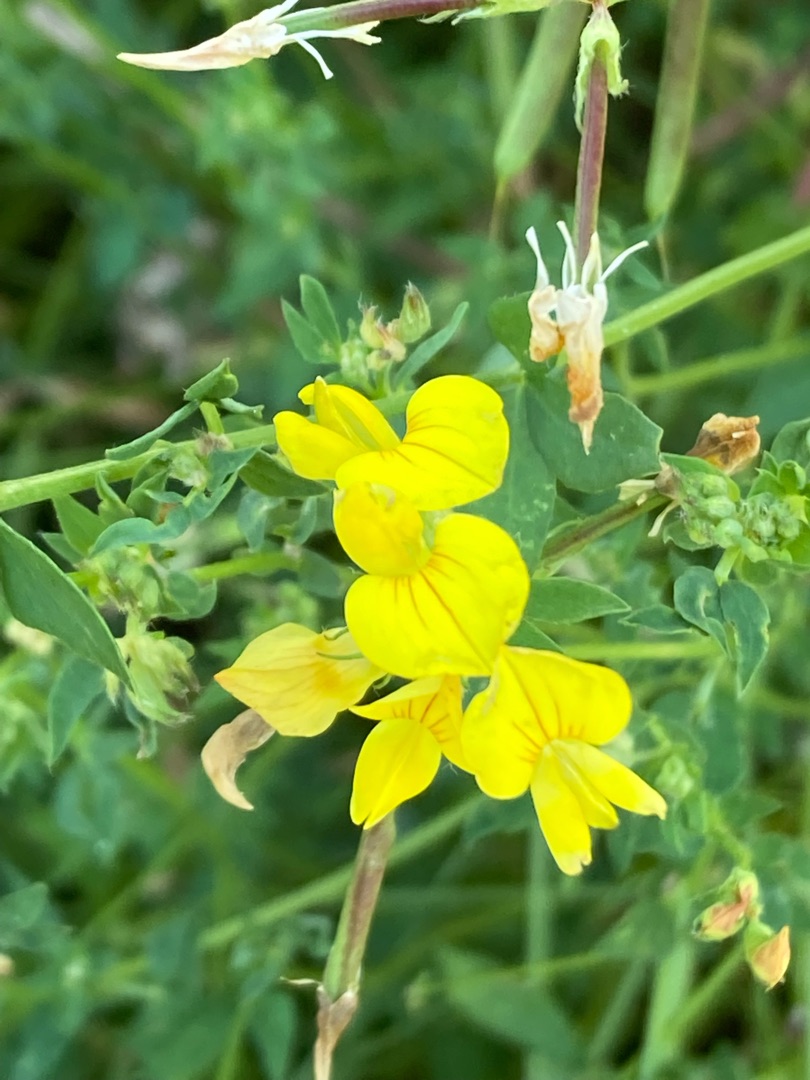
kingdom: Plantae
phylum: Tracheophyta
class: Magnoliopsida
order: Fabales
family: Fabaceae
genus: Lotus
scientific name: Lotus corniculatus
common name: Almindelig kællingetand
